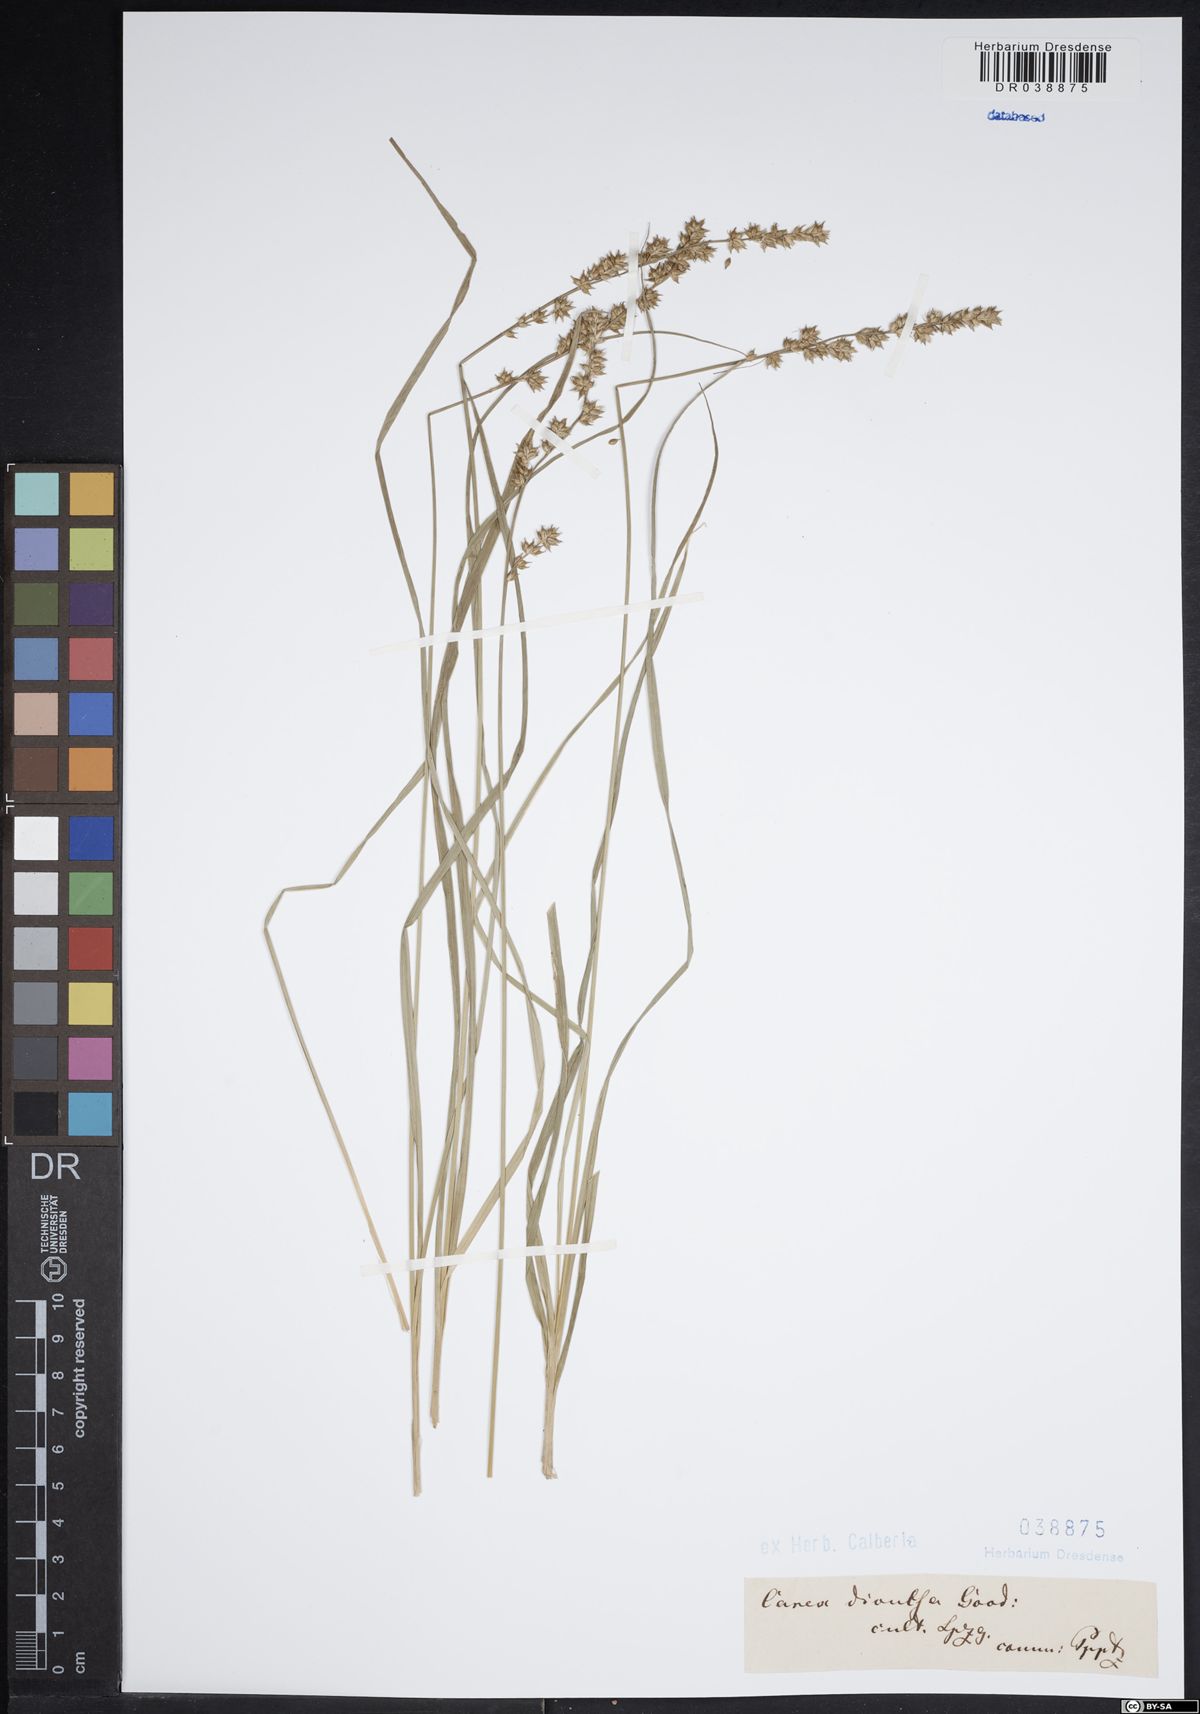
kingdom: Plantae
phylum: Tracheophyta
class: Liliopsida
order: Poales
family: Cyperaceae
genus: Carex
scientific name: Carex divulsa
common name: Grassland sedge
